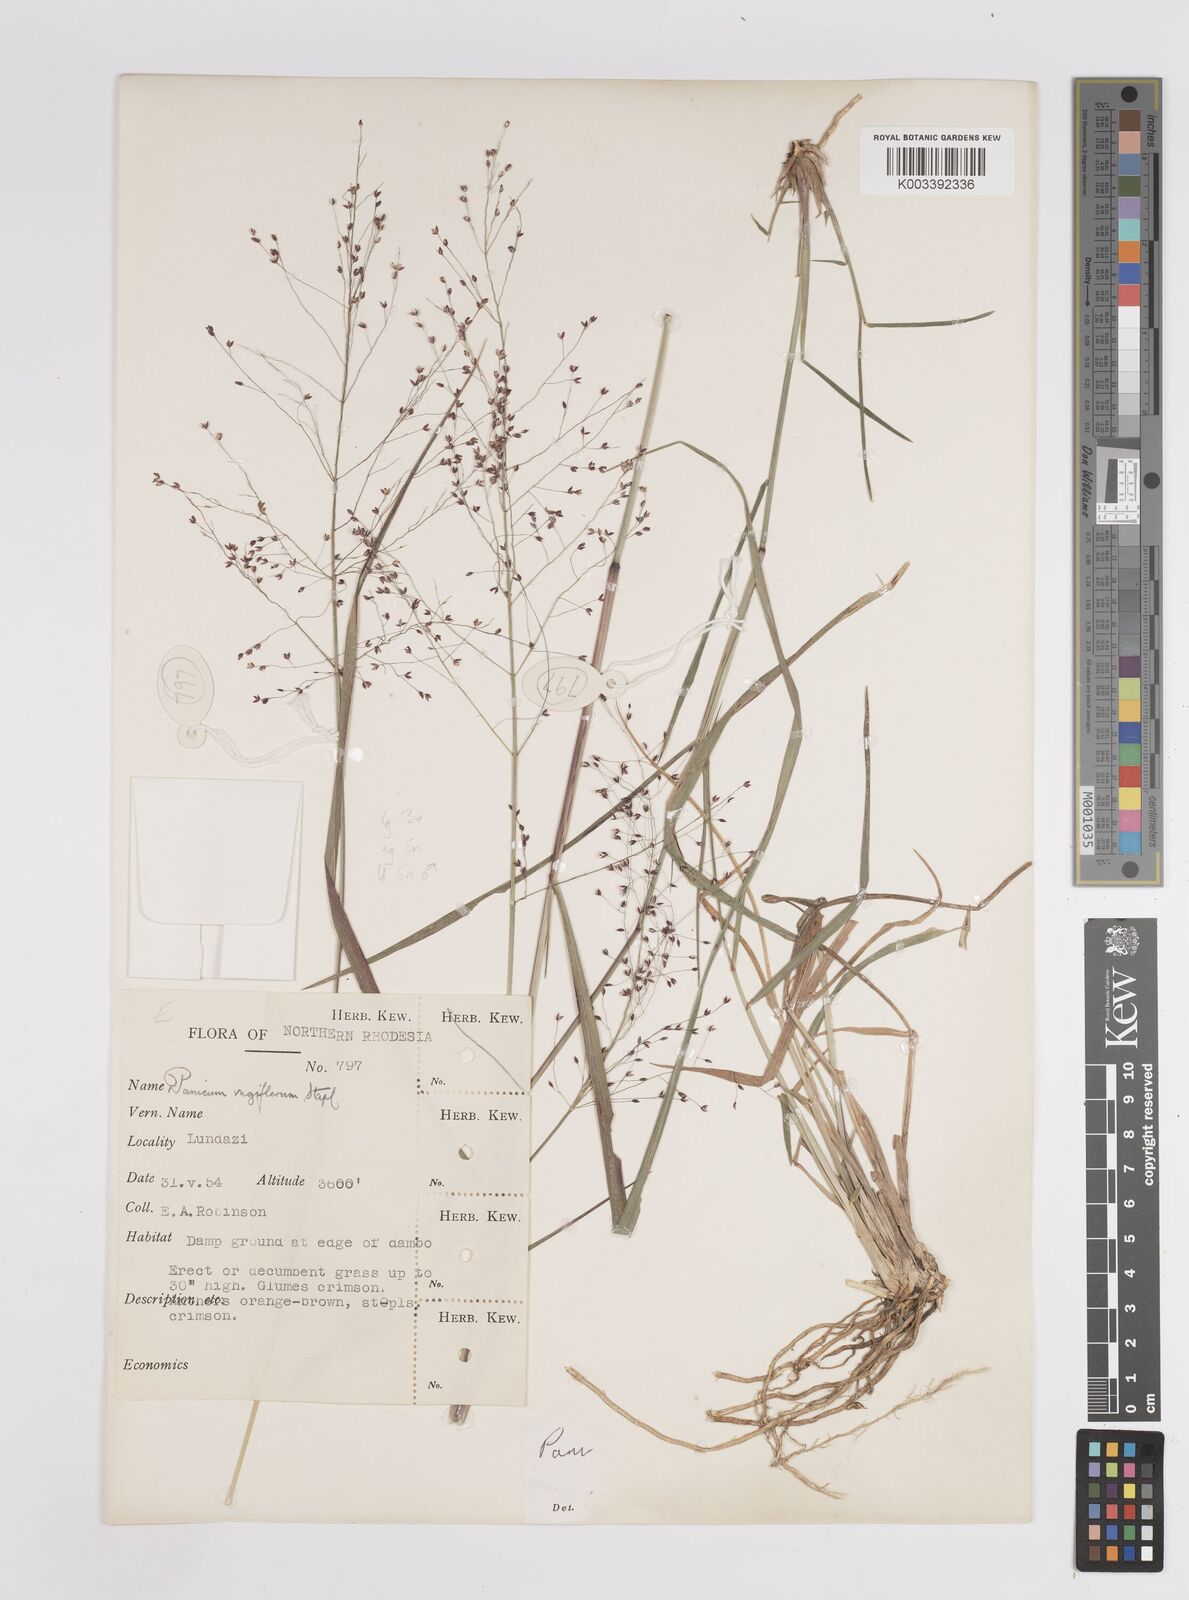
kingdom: Plantae
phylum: Tracheophyta
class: Liliopsida
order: Poales
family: Poaceae
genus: Panicum
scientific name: Panicum graciliflorum
